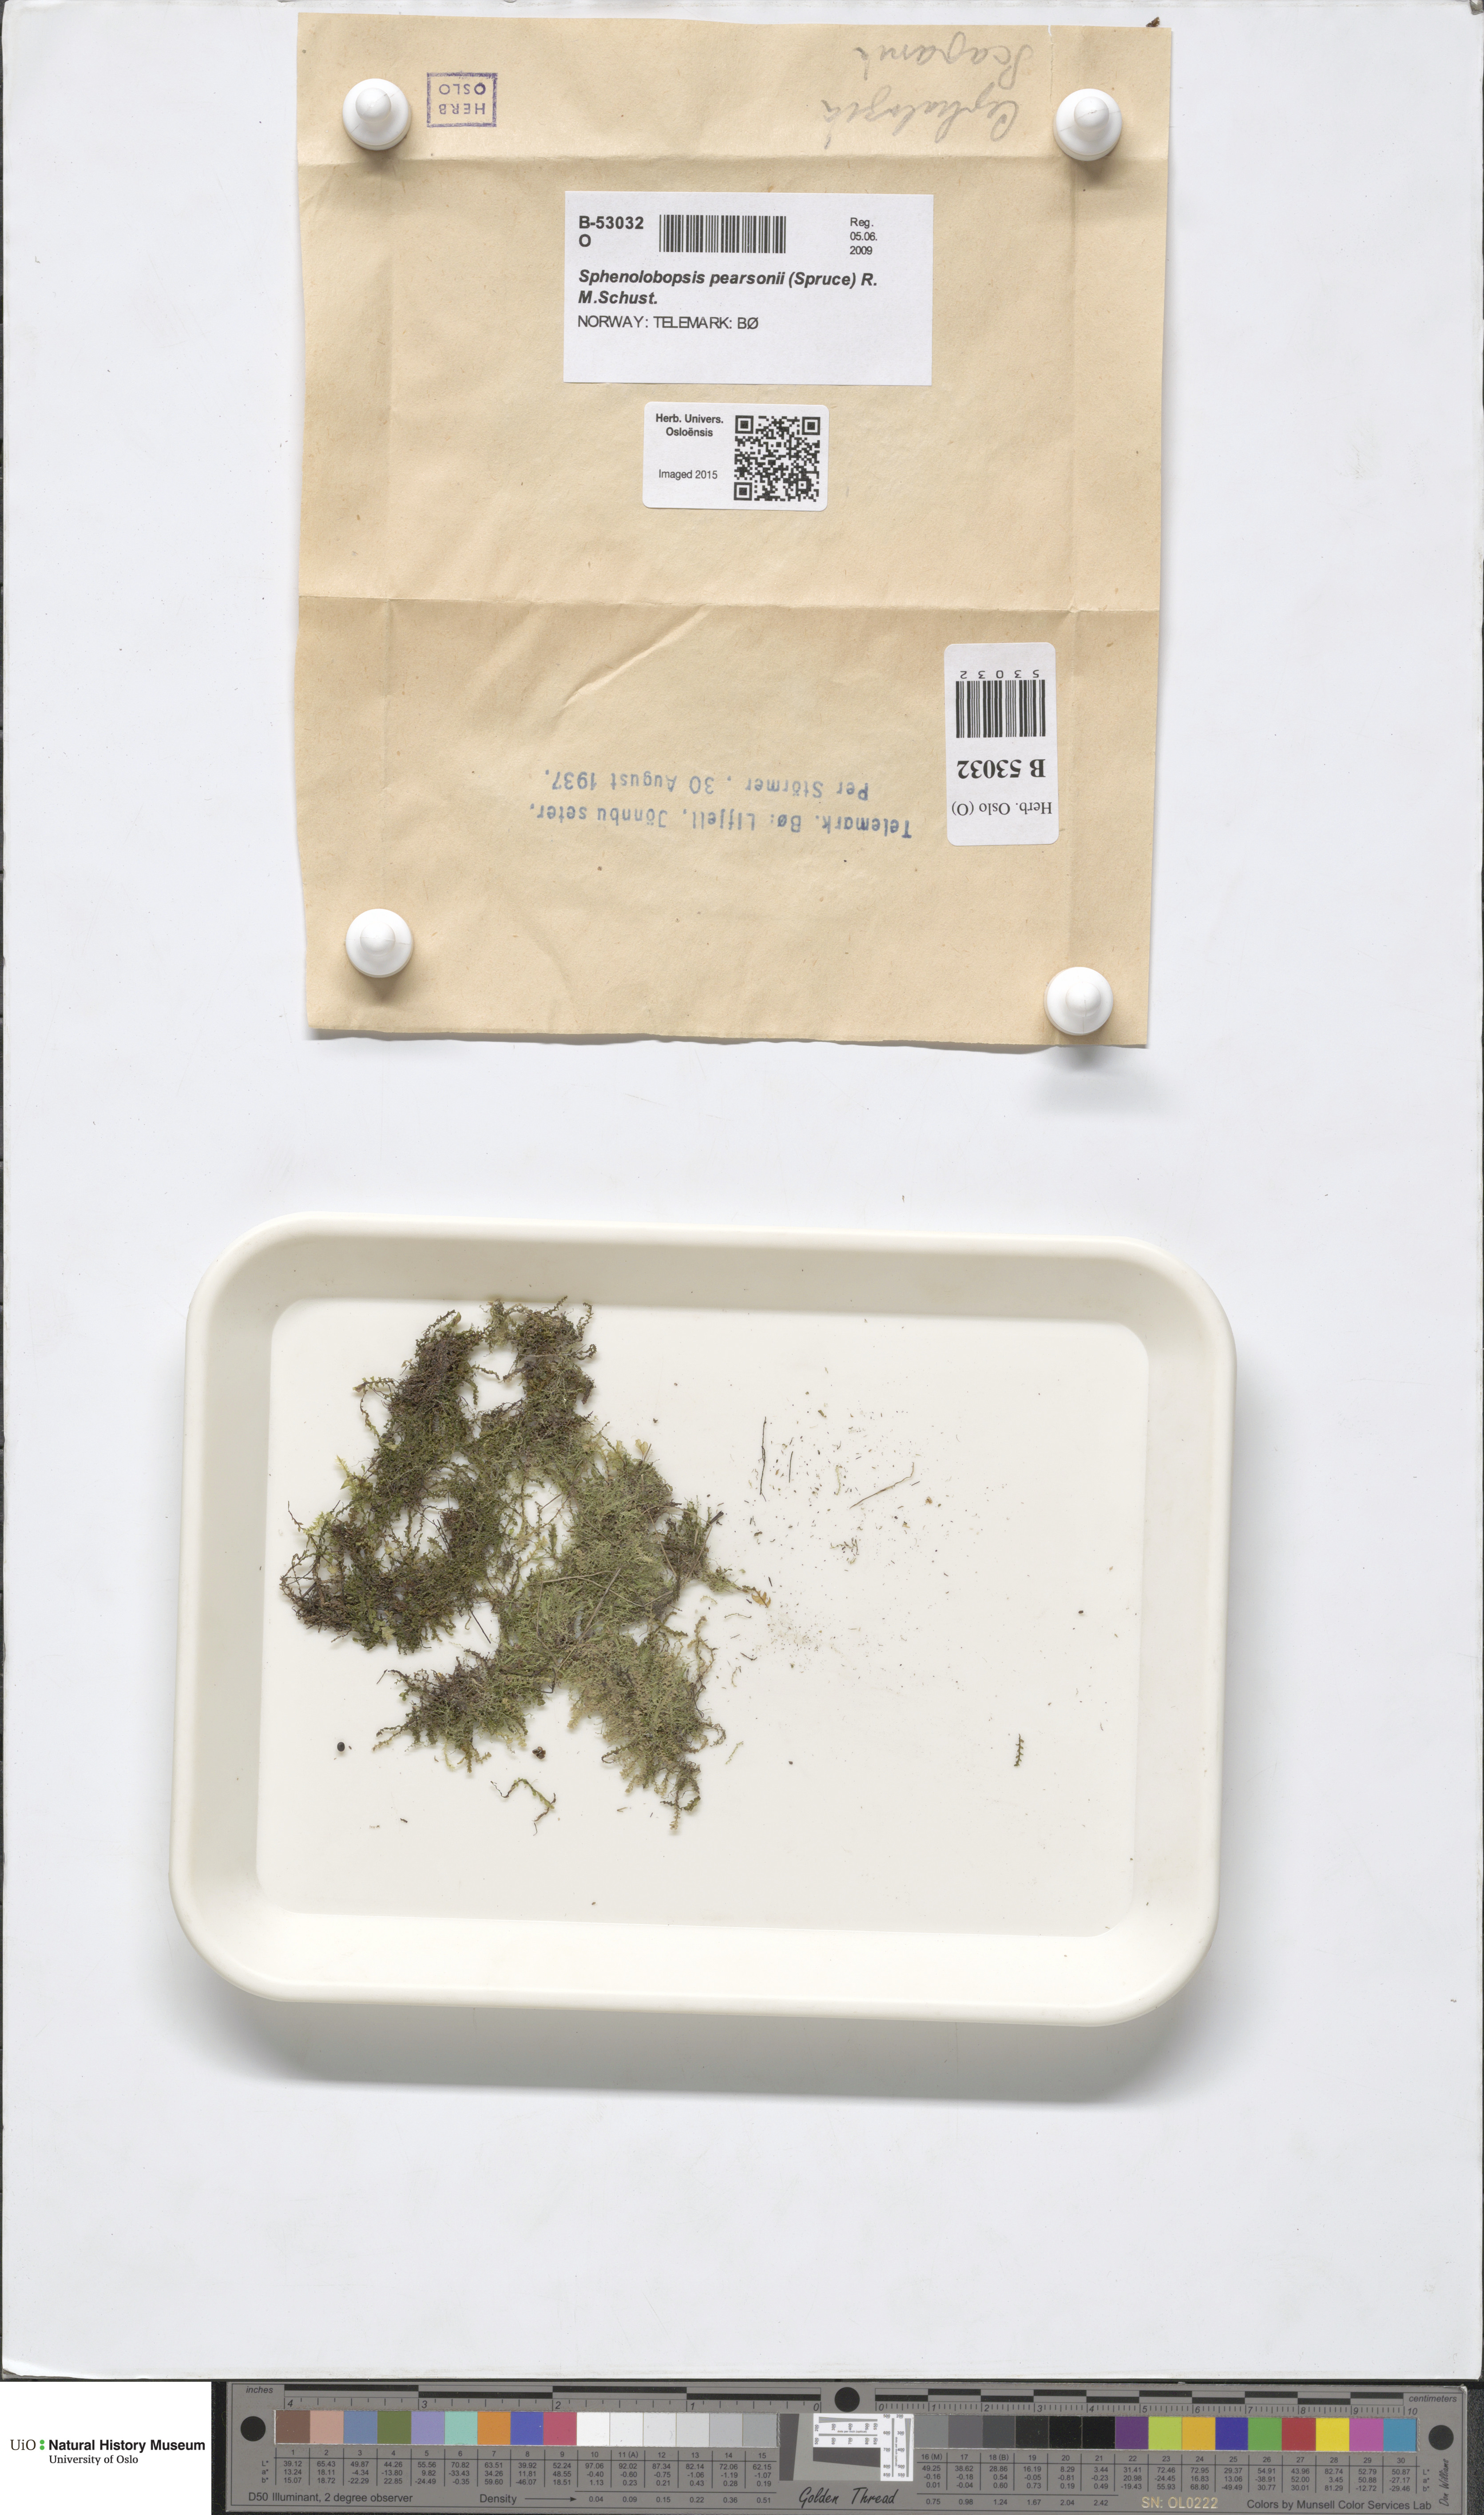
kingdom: Plantae
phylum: Marchantiophyta
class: Jungermanniopsida
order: Jungermanniales
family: Anastrophyllaceae
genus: Sphenolobopsis
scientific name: Sphenolobopsis pearsonii
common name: Horsehair threadwort
